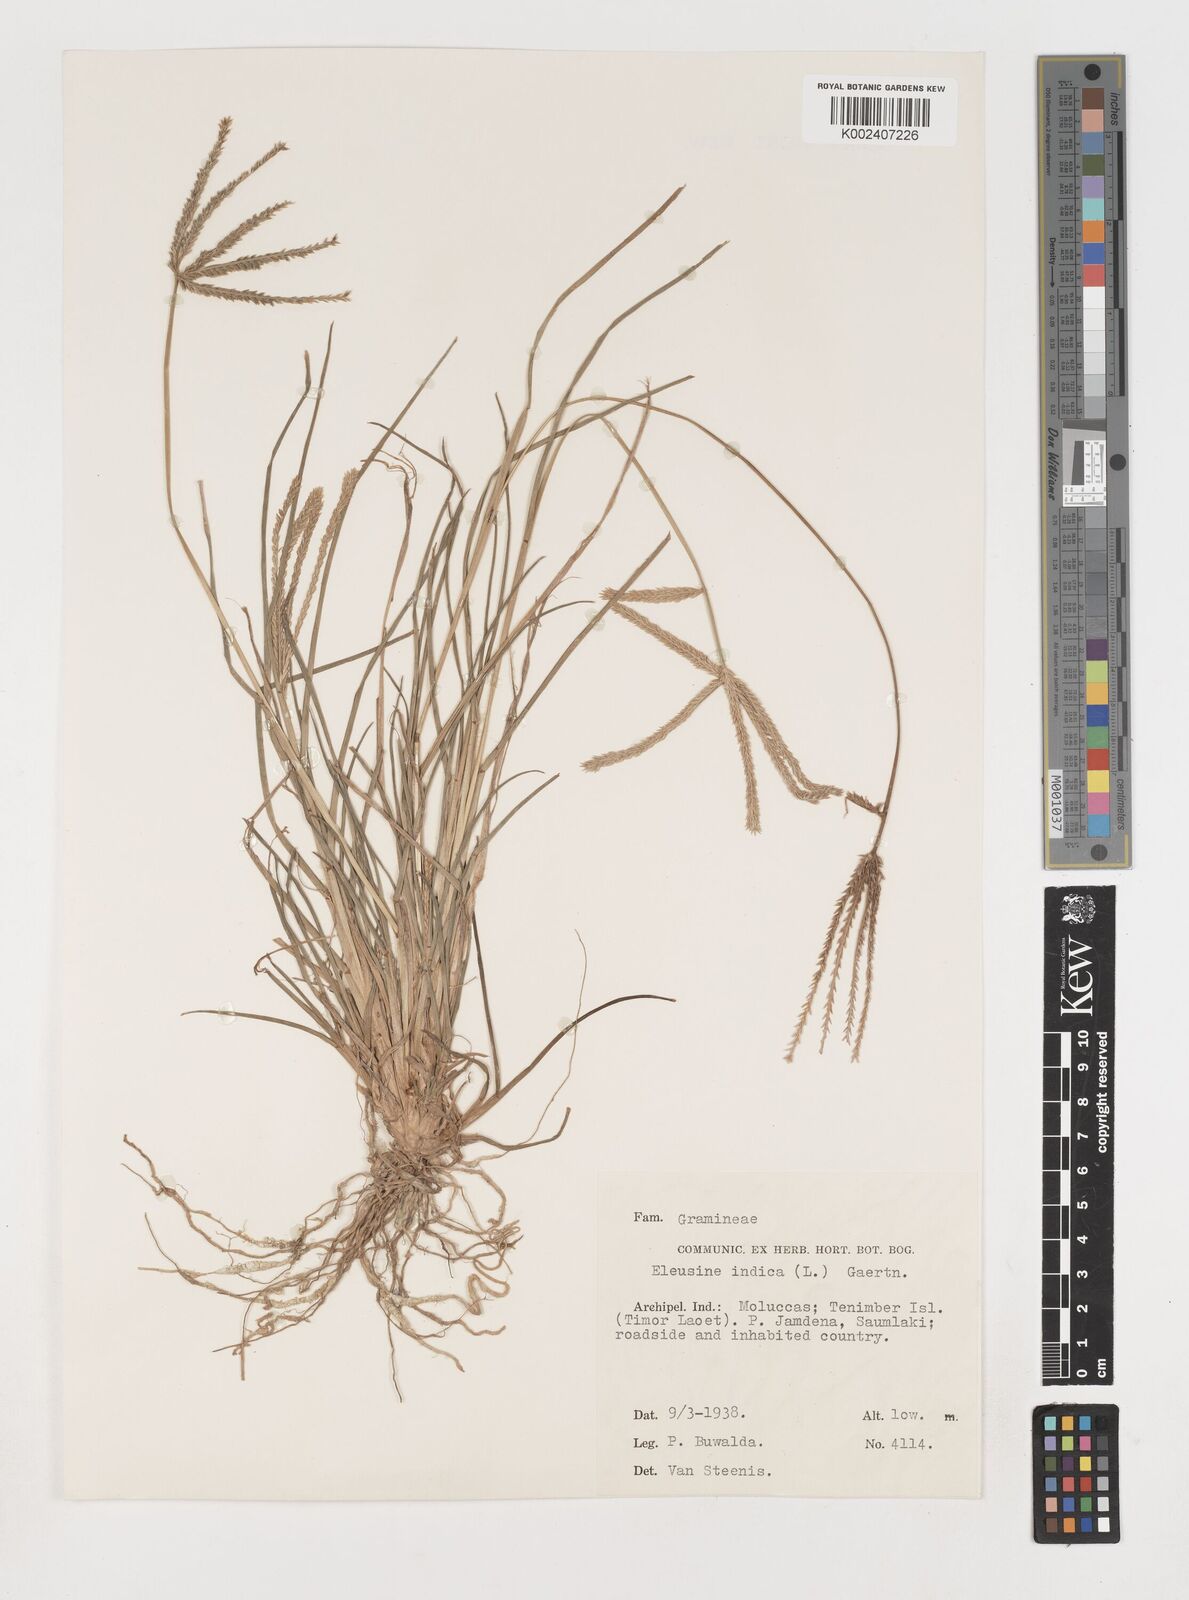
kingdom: Plantae
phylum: Tracheophyta
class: Liliopsida
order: Poales
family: Poaceae
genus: Eleusine
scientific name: Eleusine indica
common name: Yard-grass
